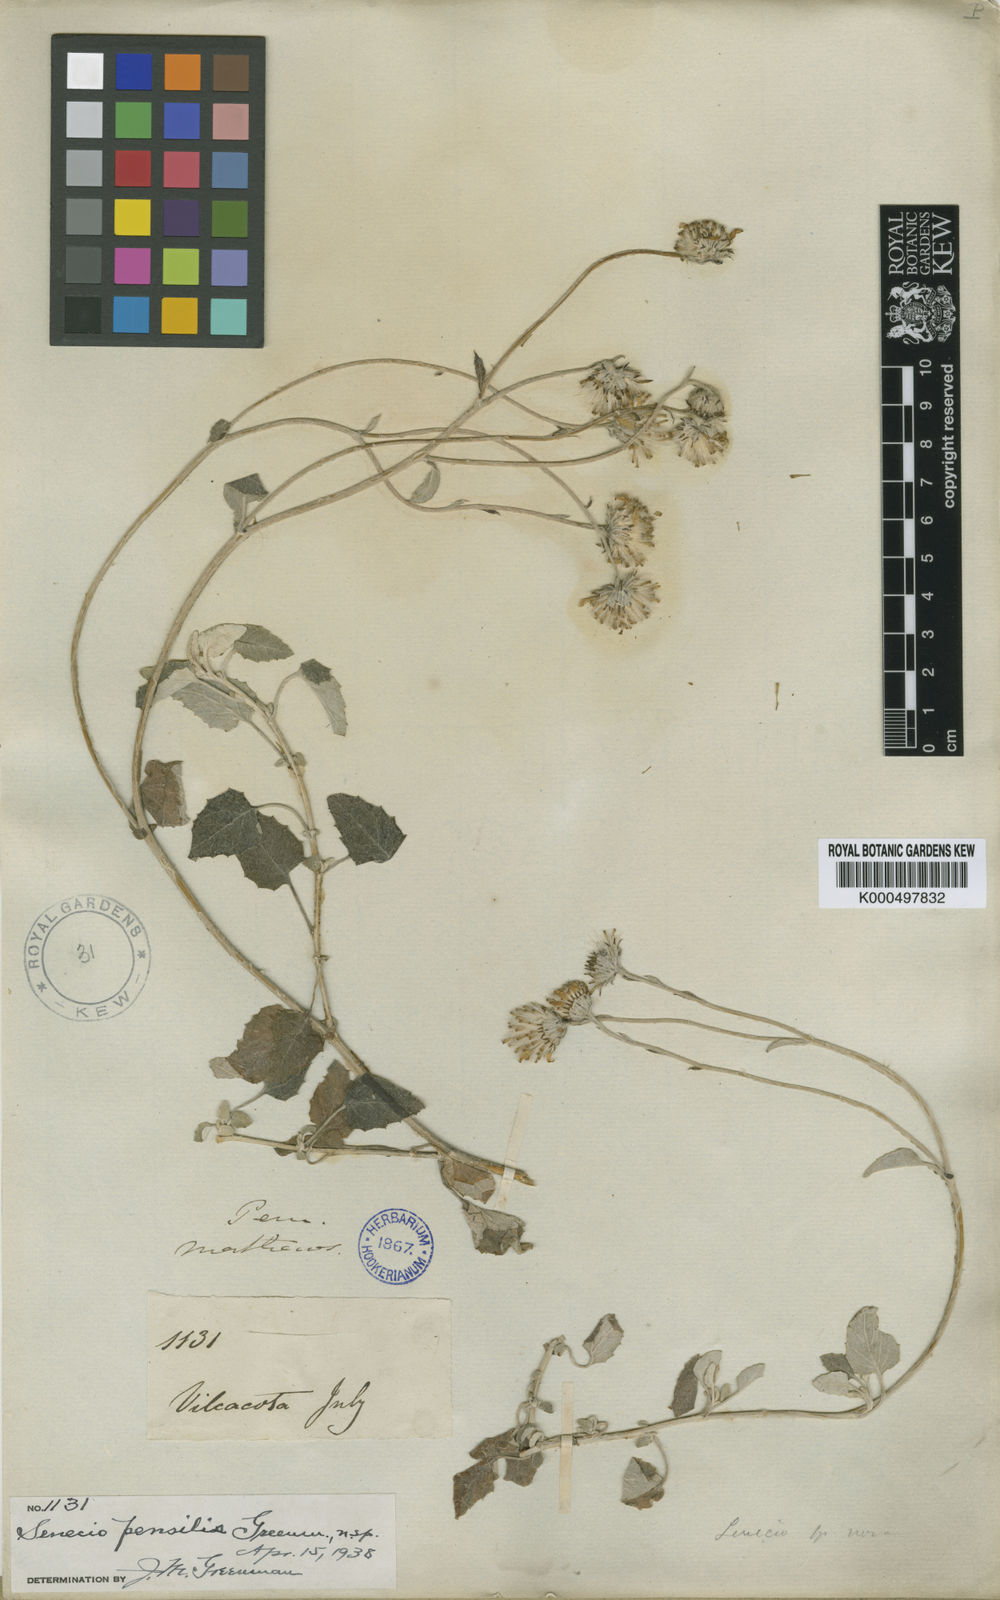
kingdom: Plantae
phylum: Tracheophyta
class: Magnoliopsida
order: Asterales
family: Asteraceae
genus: Senecio
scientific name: Senecio pensilis
